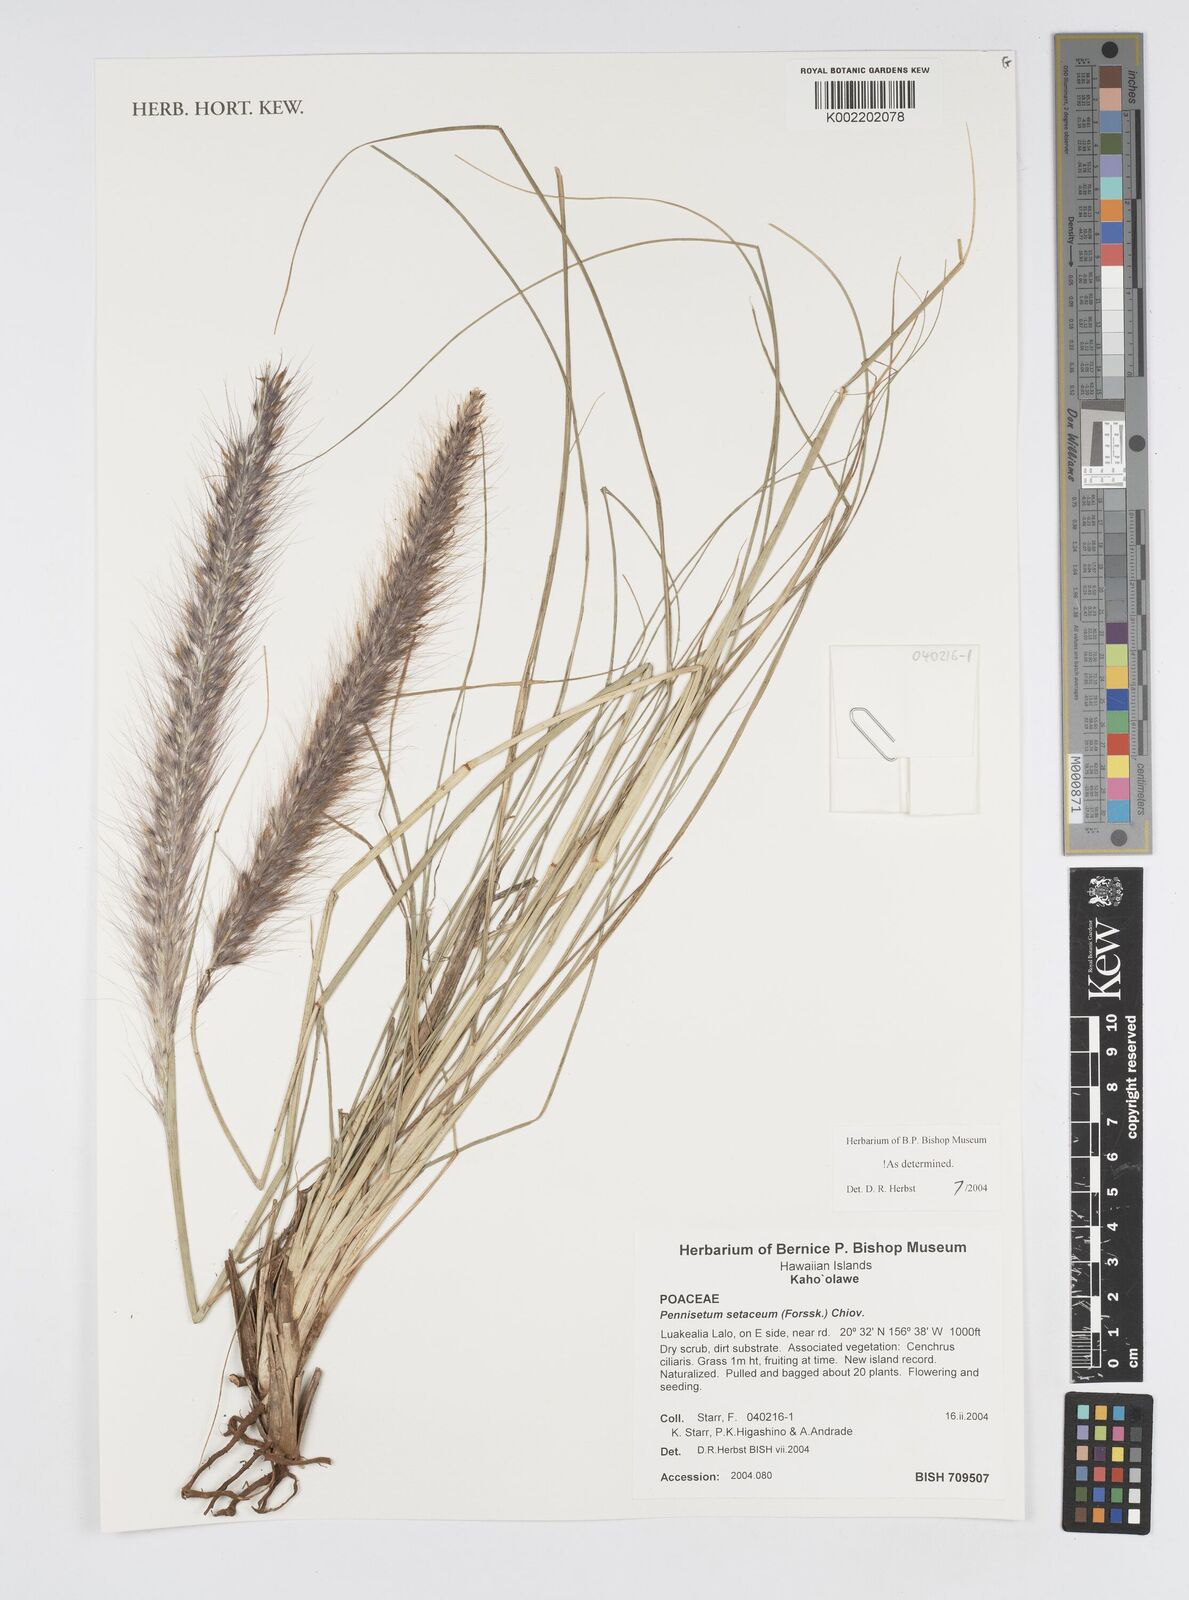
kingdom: Plantae
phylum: Tracheophyta
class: Liliopsida
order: Poales
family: Poaceae
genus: Cenchrus
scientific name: Cenchrus setaceus
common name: Crimson fountaingrass
